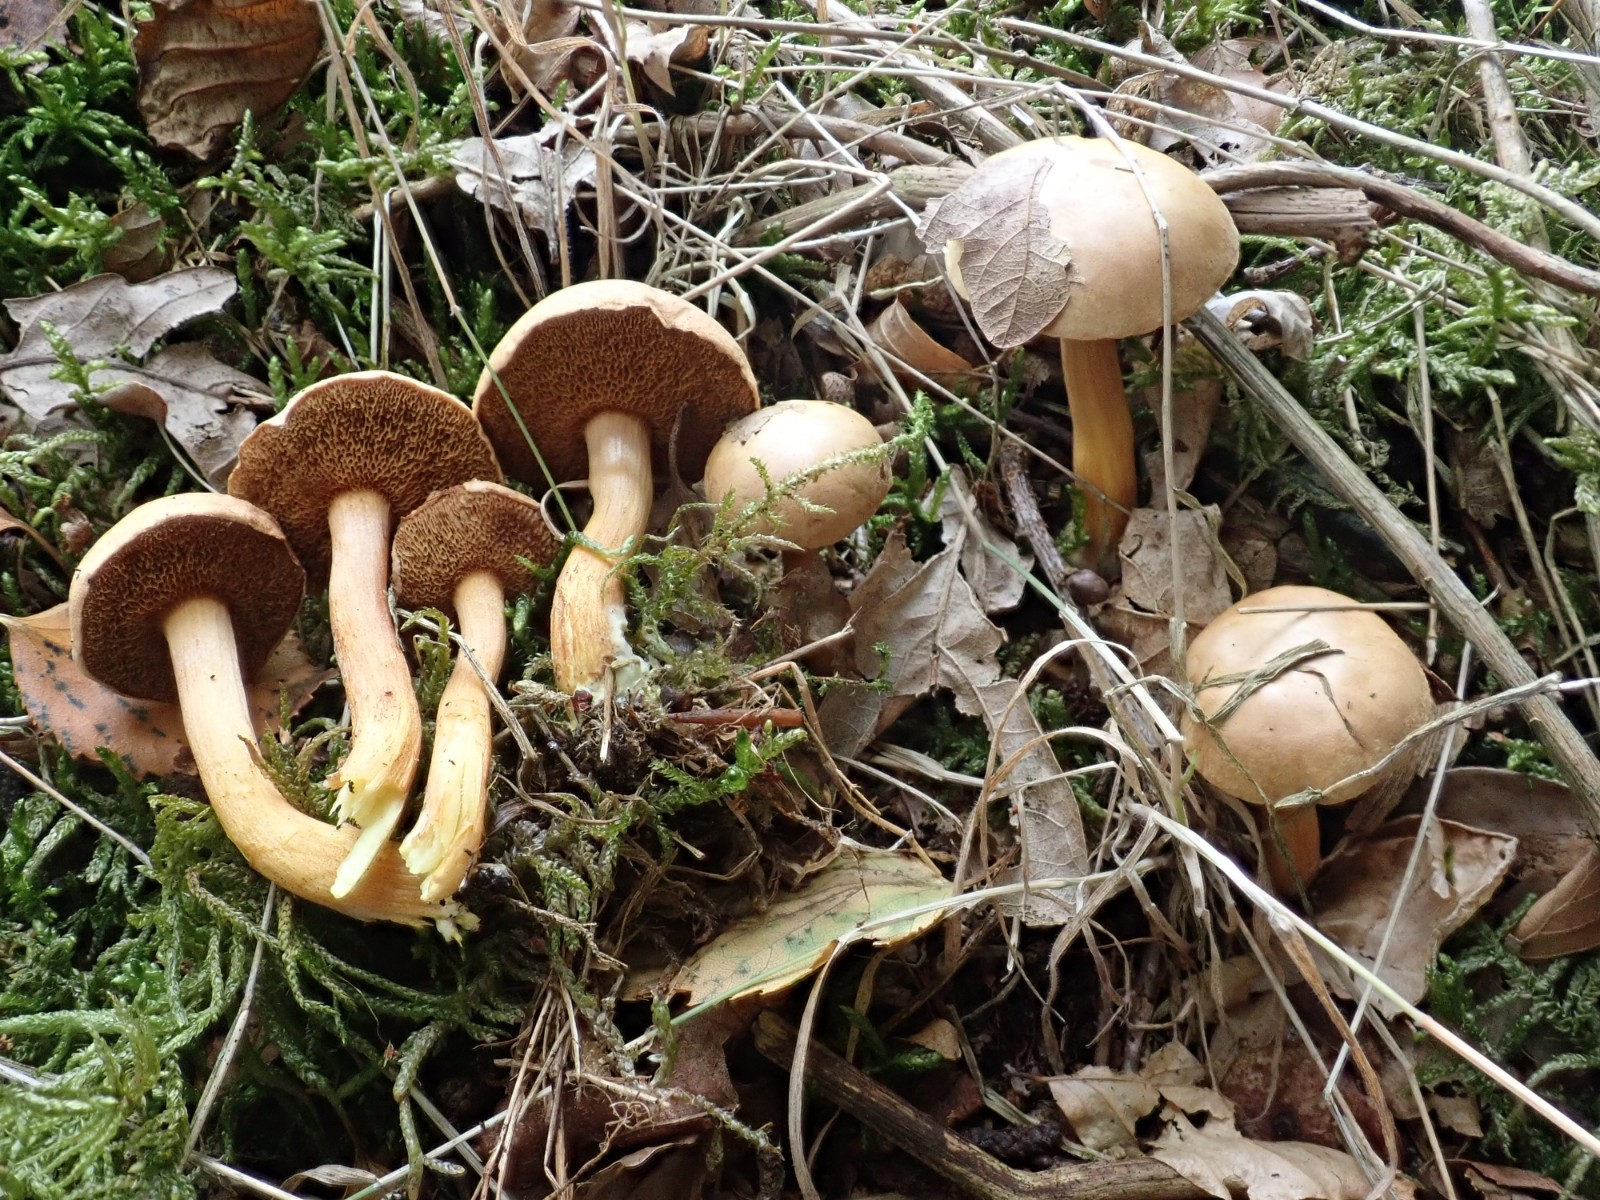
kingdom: Fungi
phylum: Basidiomycota
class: Agaricomycetes
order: Boletales
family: Boletaceae
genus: Chalciporus
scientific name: Chalciporus piperatus
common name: peberrørhat
